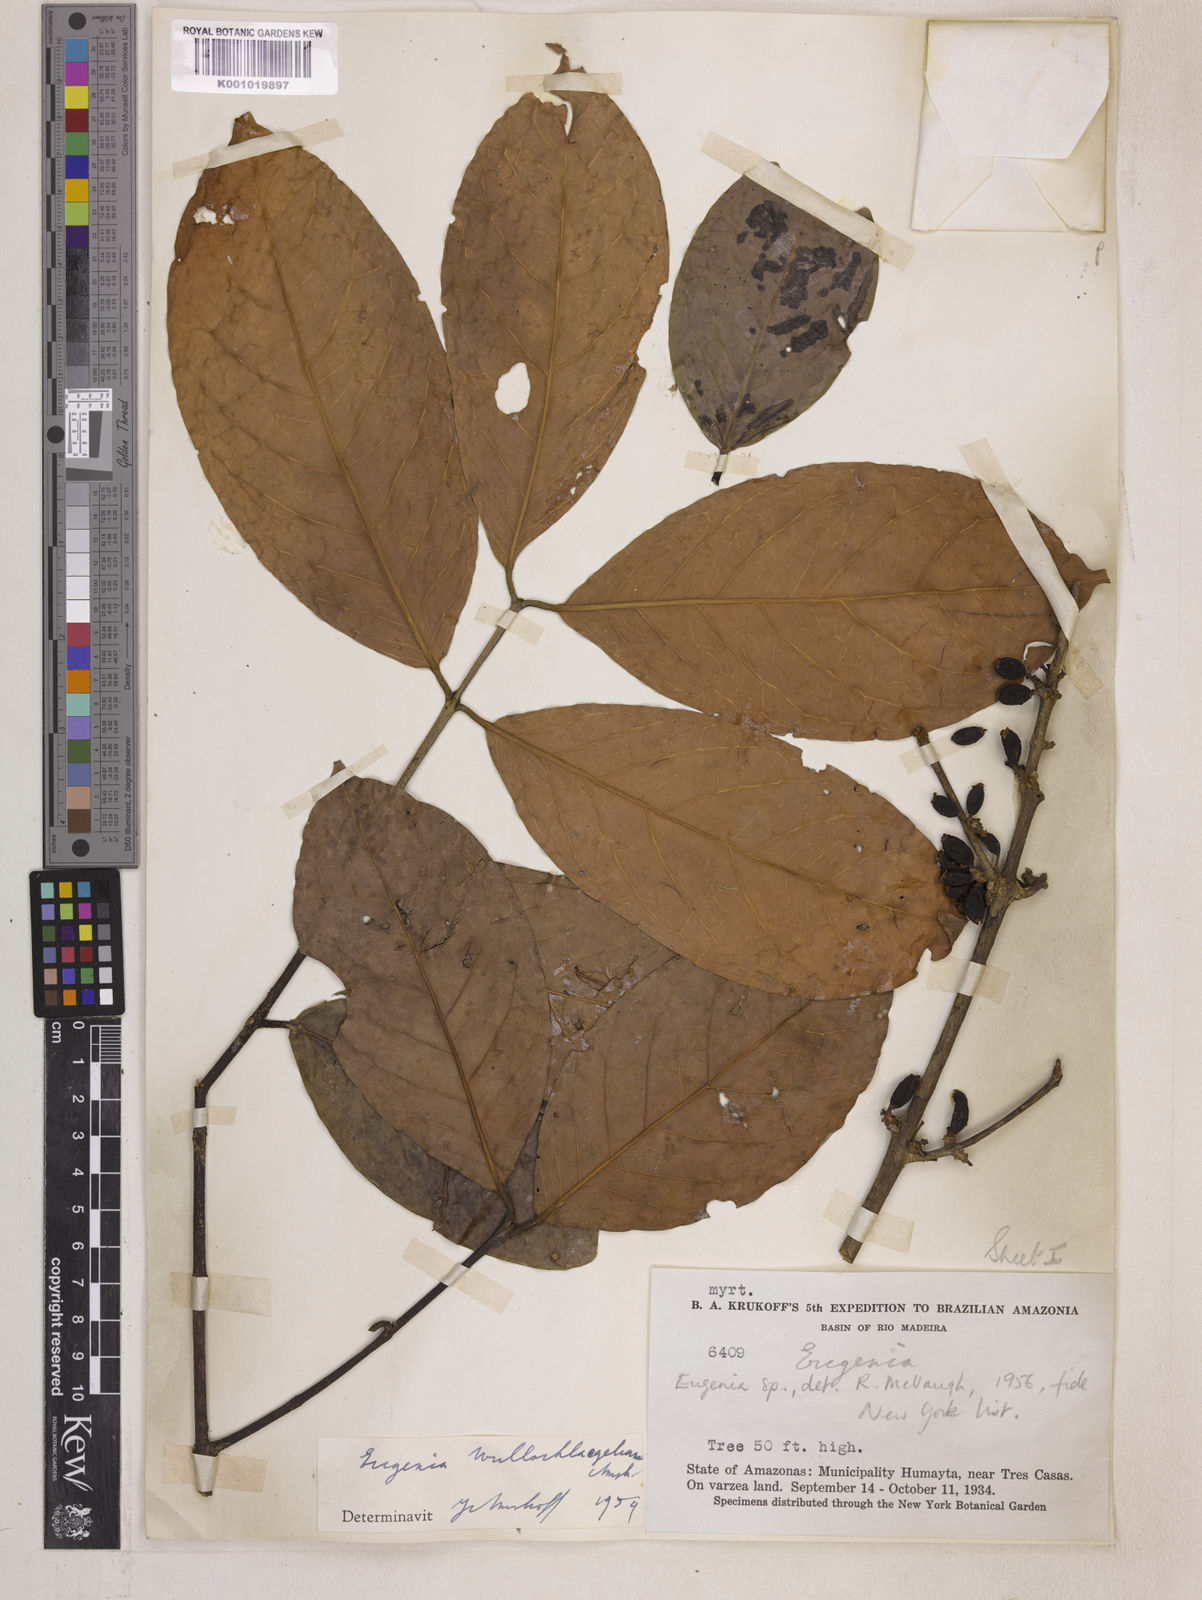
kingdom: Plantae
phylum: Tracheophyta
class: Magnoliopsida
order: Myrtales
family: Myrtaceae
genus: Eugenia
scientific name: Eugenia wullschlaegeliana
